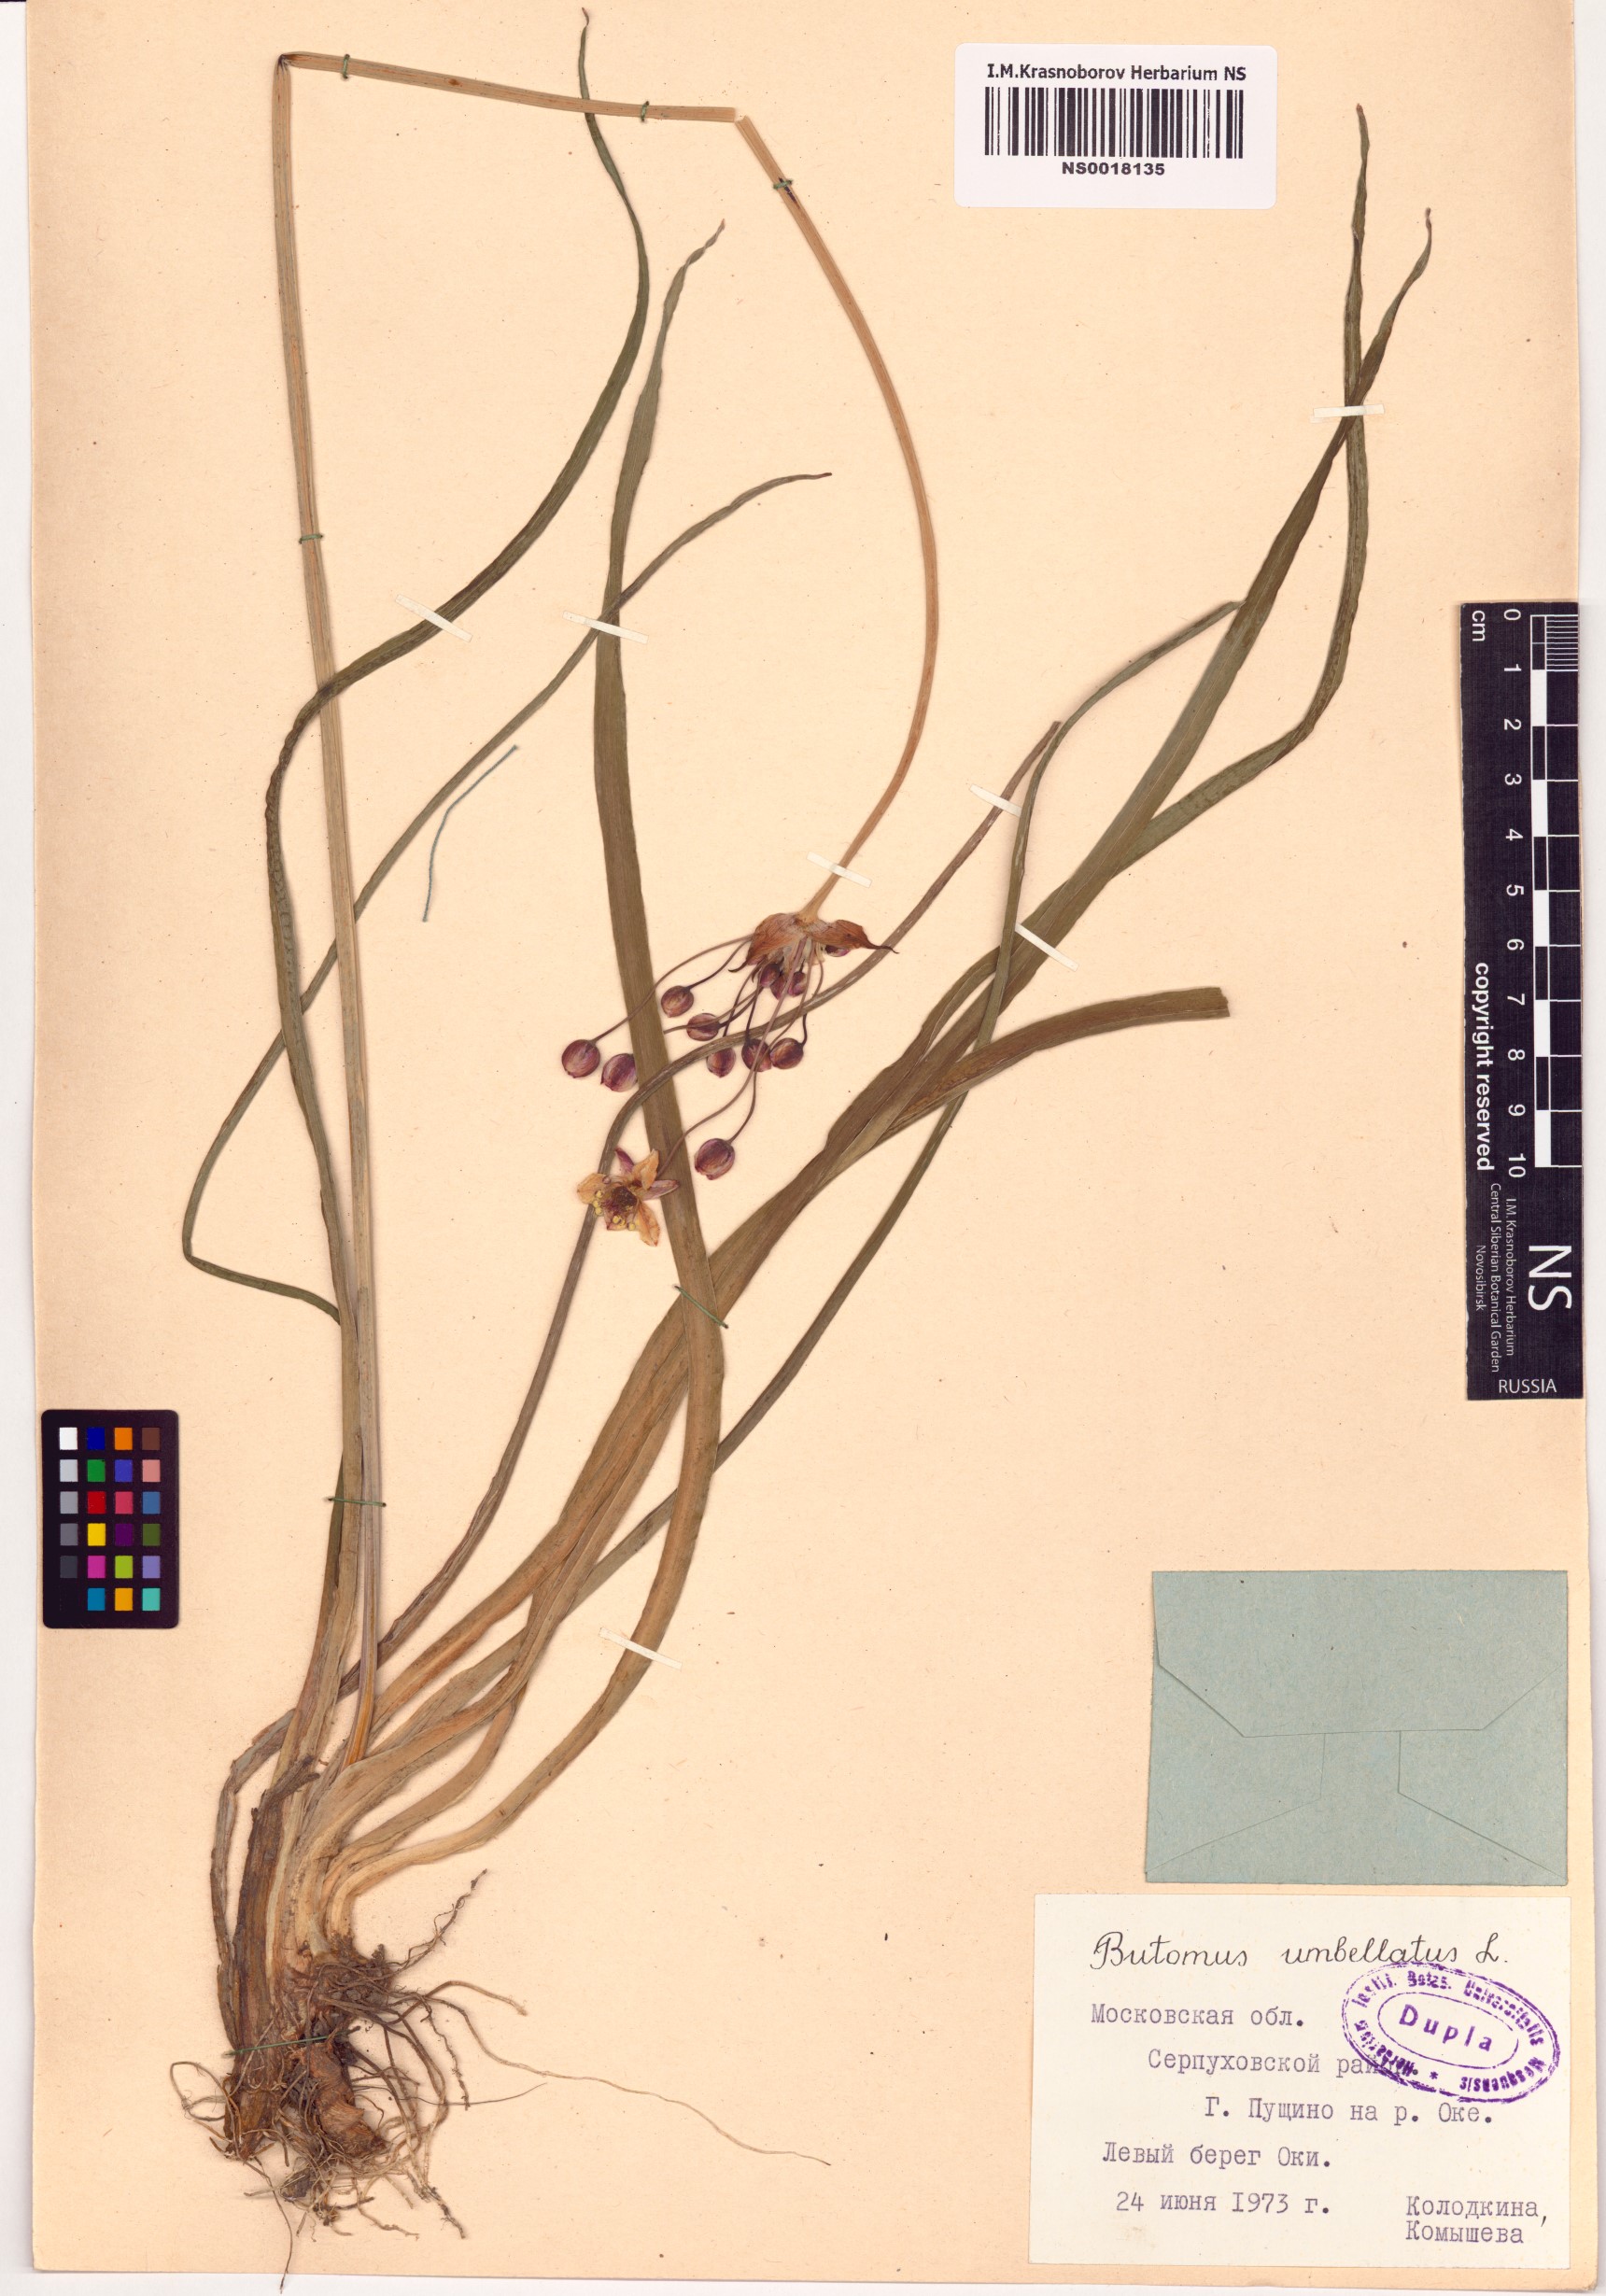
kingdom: Plantae
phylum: Tracheophyta
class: Liliopsida
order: Alismatales
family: Butomaceae
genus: Butomus
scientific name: Butomus umbellatus
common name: Flowering-rush
